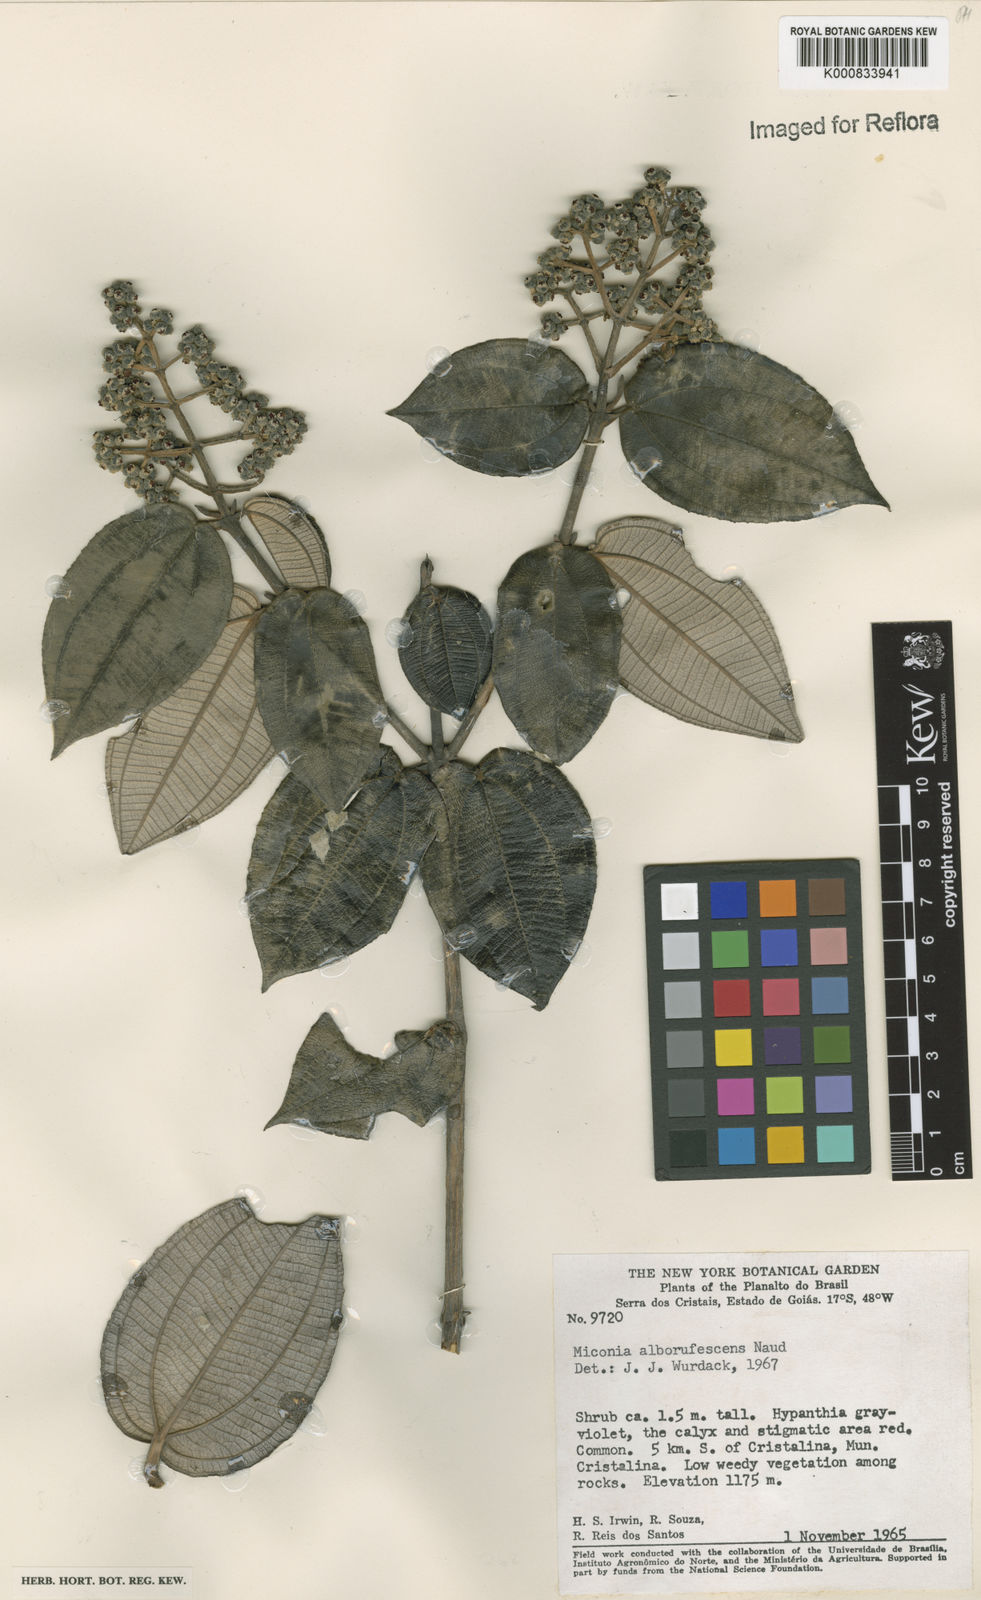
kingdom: Plantae
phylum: Tracheophyta
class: Magnoliopsida
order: Myrtales
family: Melastomataceae
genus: Miconia
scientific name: Miconia alborufescens
